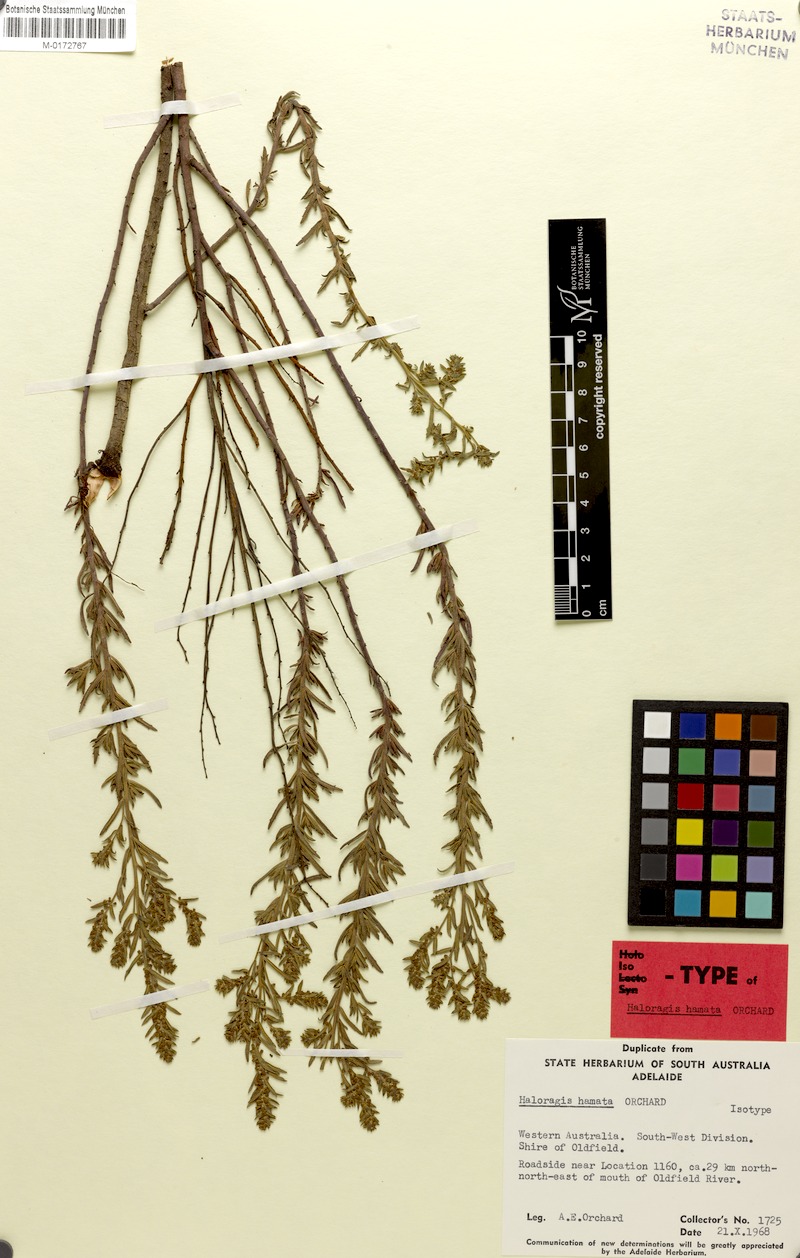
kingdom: Plantae
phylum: Tracheophyta
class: Magnoliopsida
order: Saxifragales
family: Haloragaceae
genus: Haloragis
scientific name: Haloragis hamata
